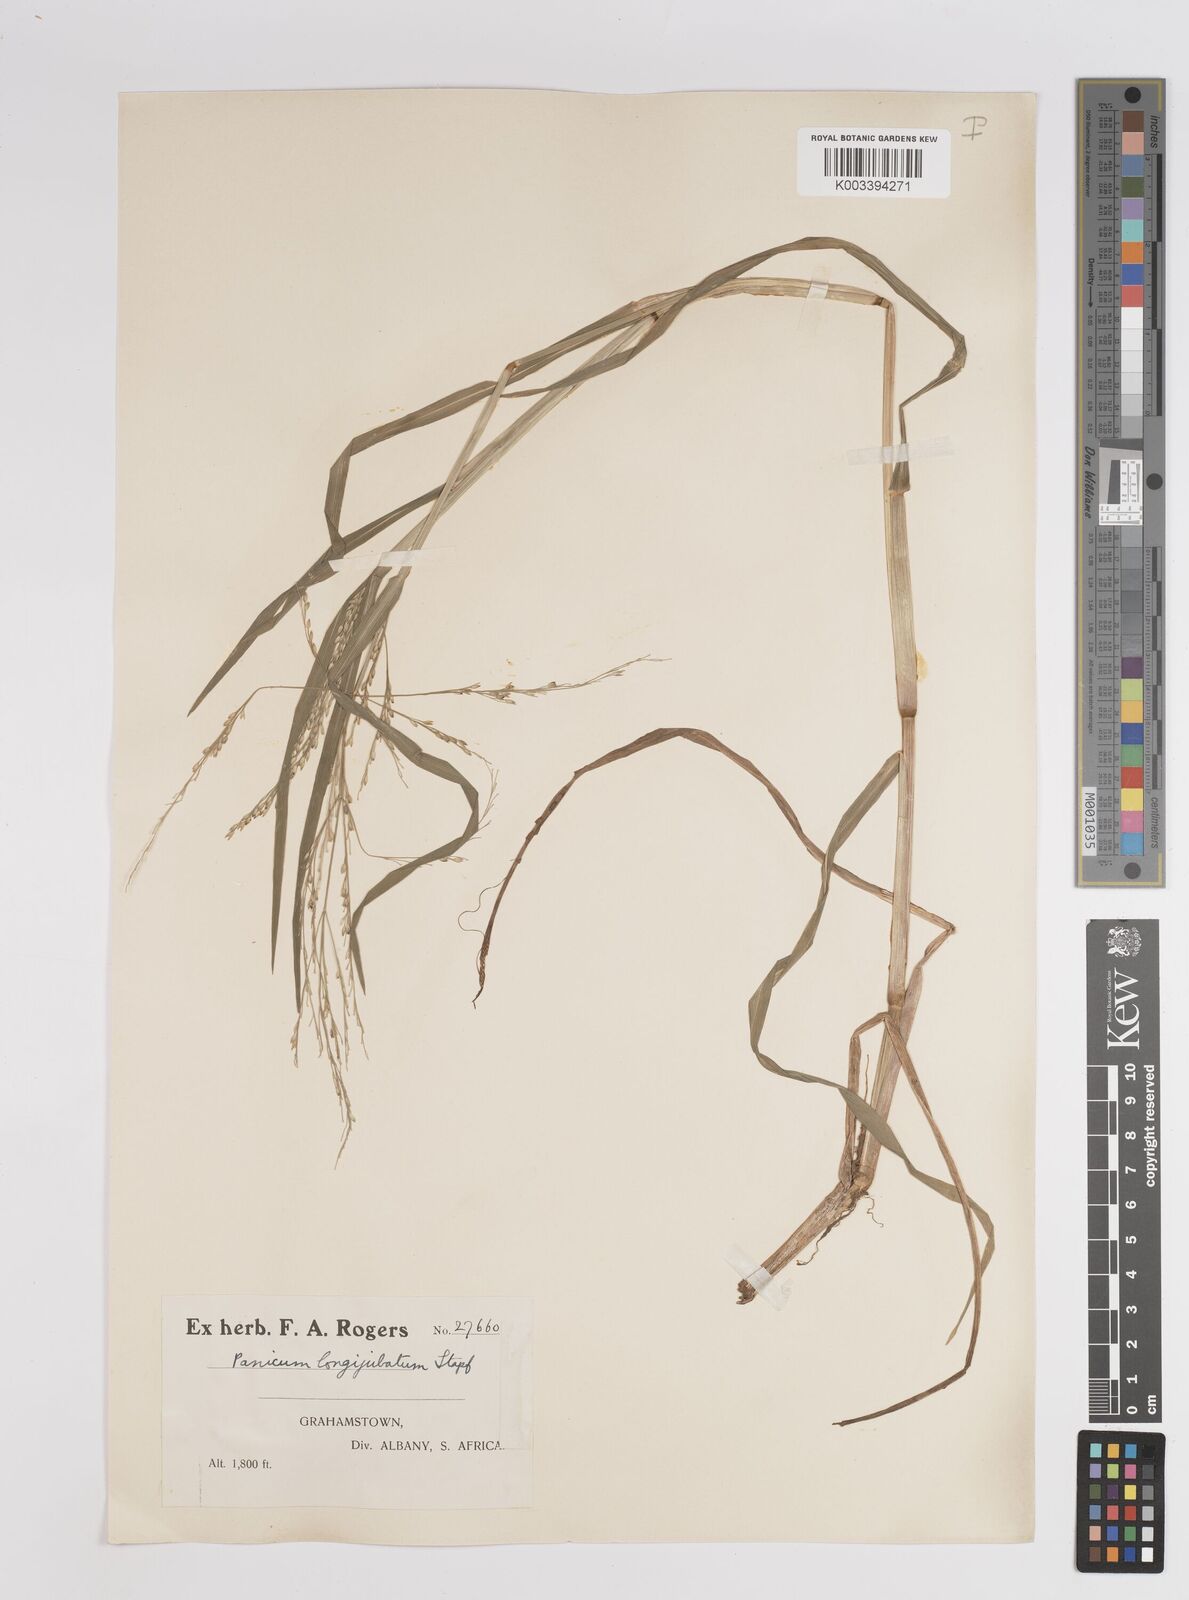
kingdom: Plantae
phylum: Tracheophyta
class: Liliopsida
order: Poales
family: Poaceae
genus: Panicum
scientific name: Panicum subalbidum
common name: Elbow buffalo grass
